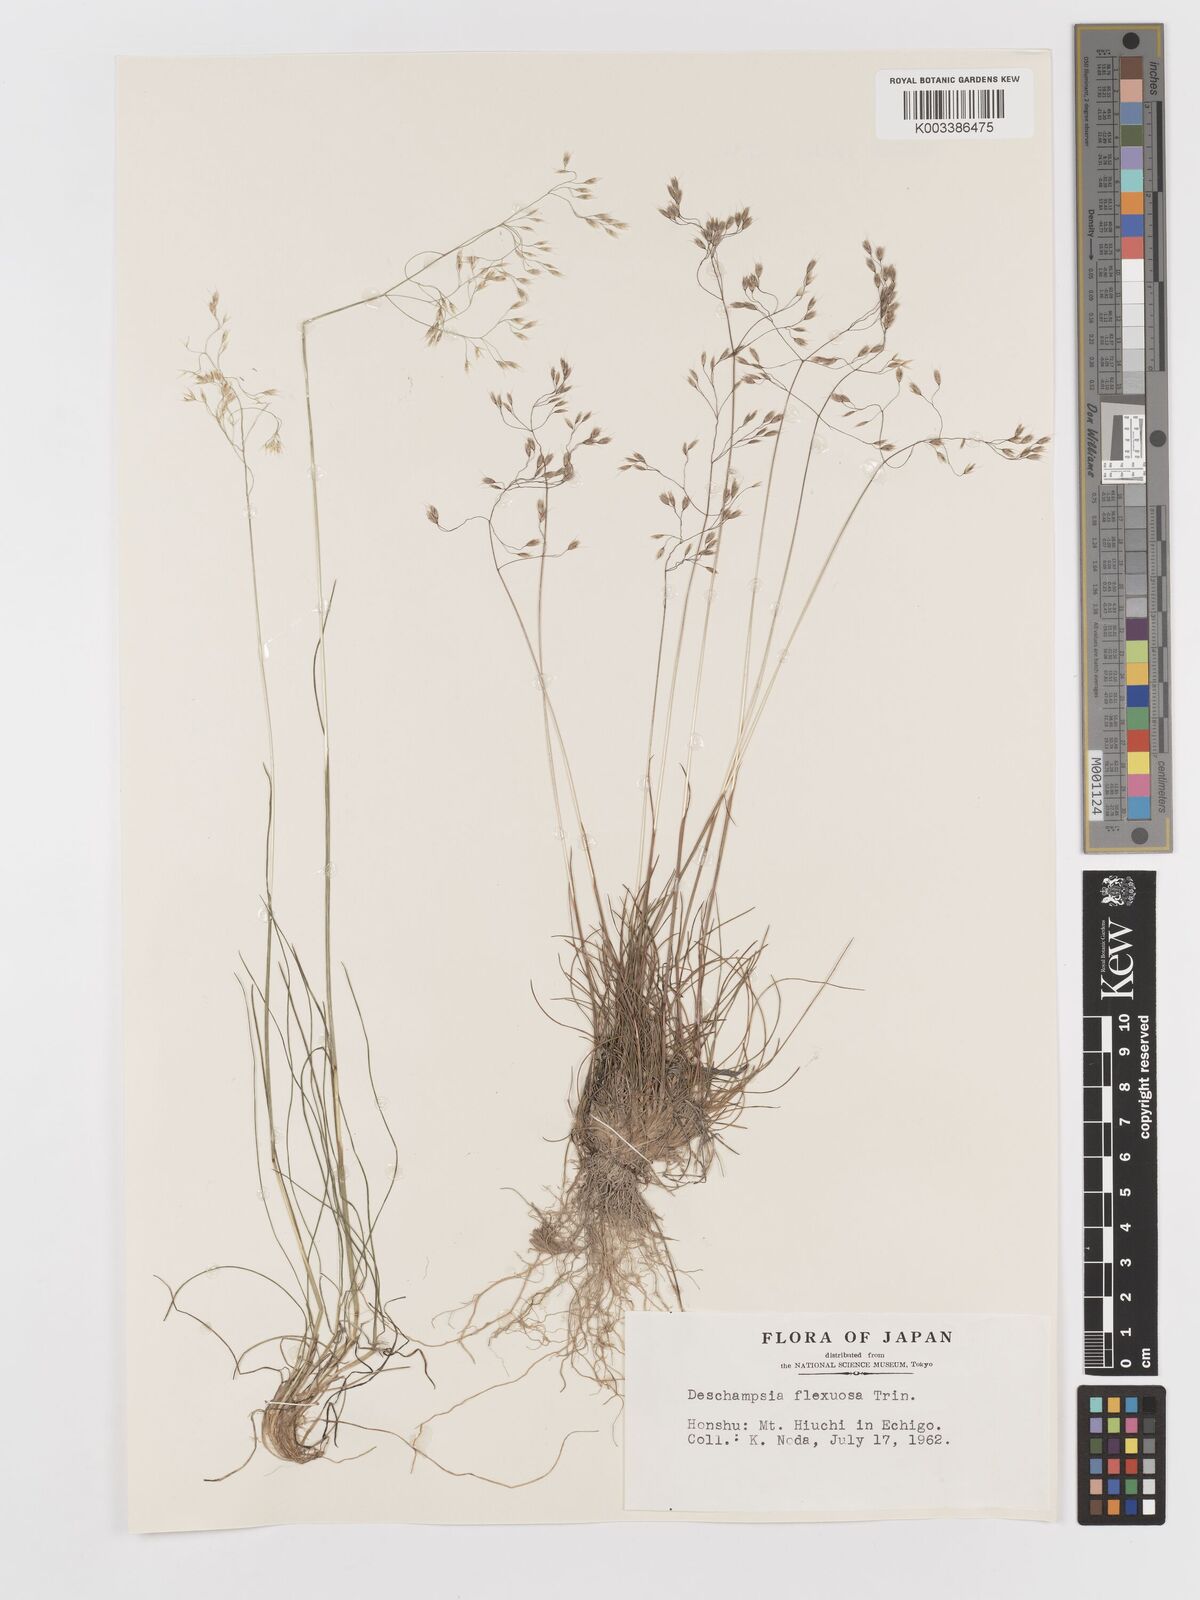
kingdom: Plantae
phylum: Tracheophyta
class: Liliopsida
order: Poales
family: Poaceae
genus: Avenella
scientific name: Avenella flexuosa
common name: Wavy hairgrass
